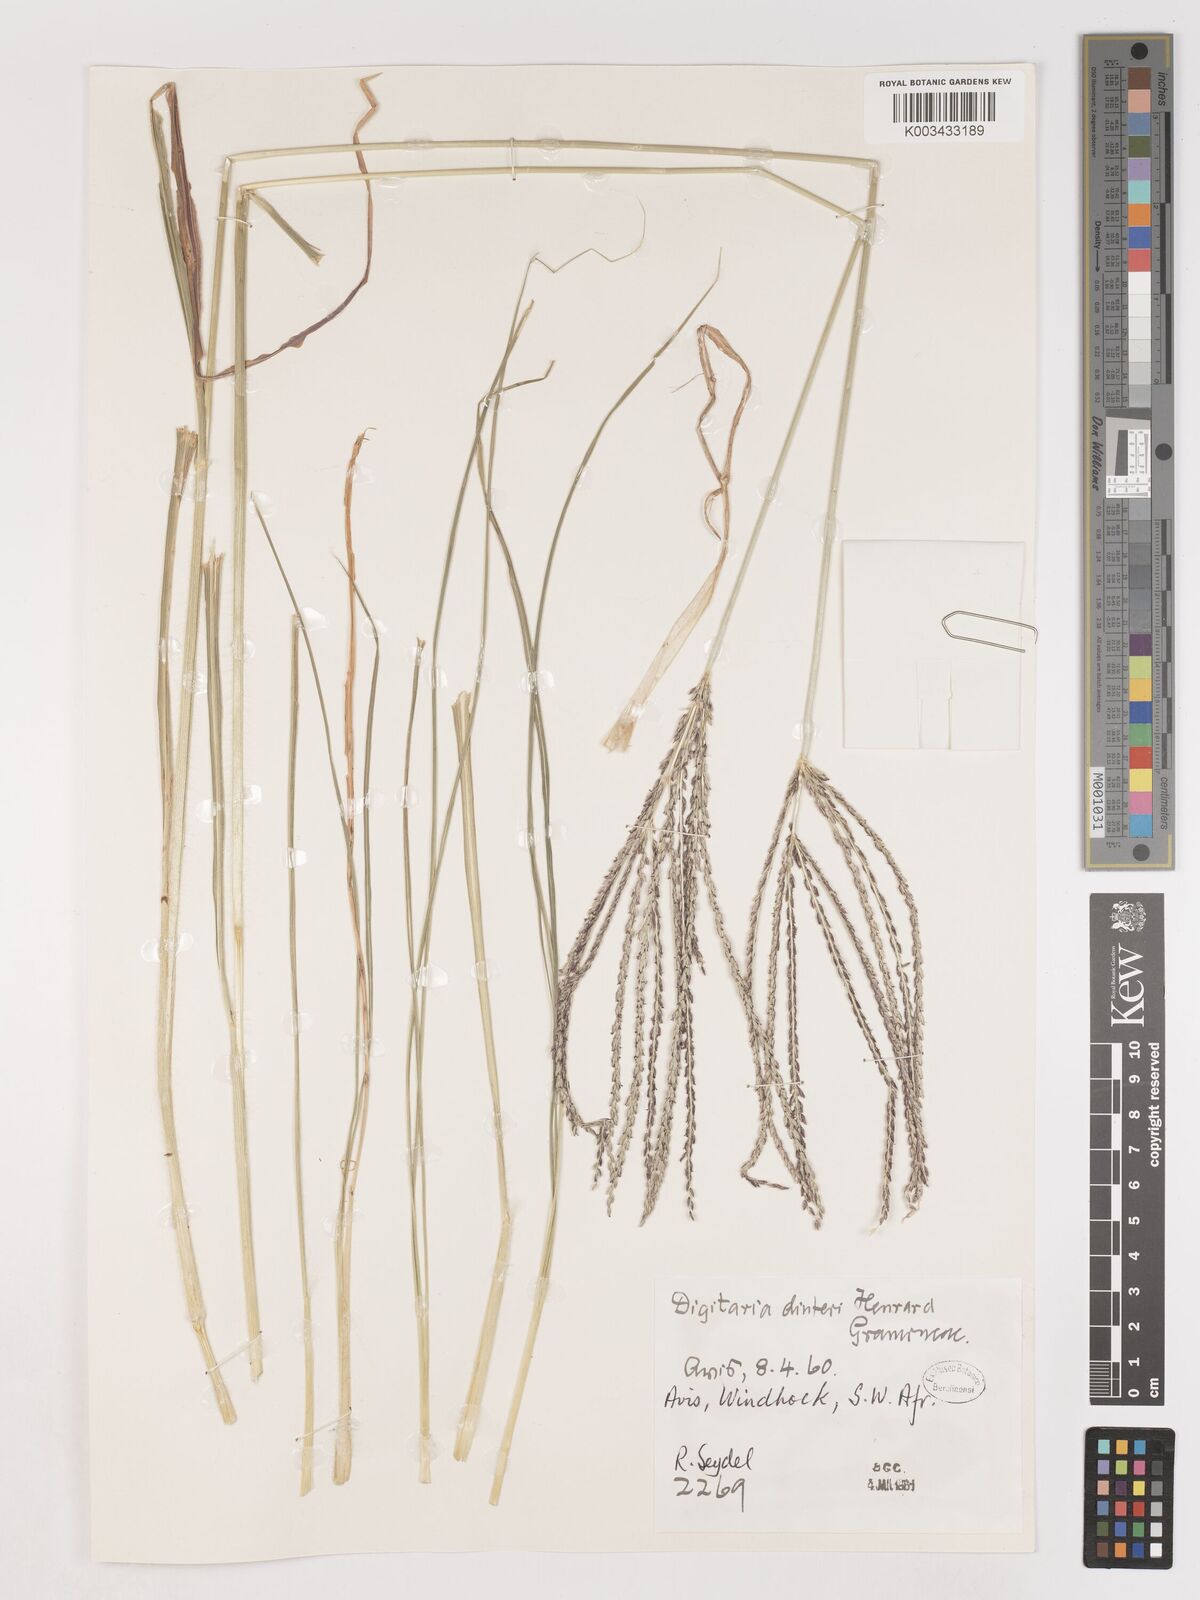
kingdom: Plantae
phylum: Tracheophyta
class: Liliopsida
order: Poales
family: Poaceae
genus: Digitaria
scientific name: Digitaria eriantha
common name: Digitgrass
